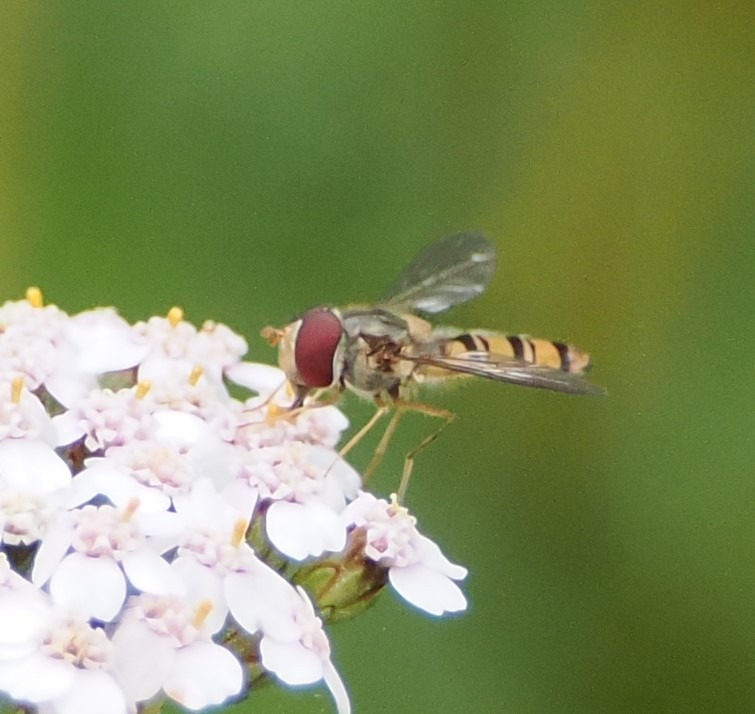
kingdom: Animalia
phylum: Arthropoda
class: Insecta
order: Diptera
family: Syrphidae
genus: Episyrphus
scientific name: Episyrphus balteatus
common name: Dobbeltbåndet svirreflue
